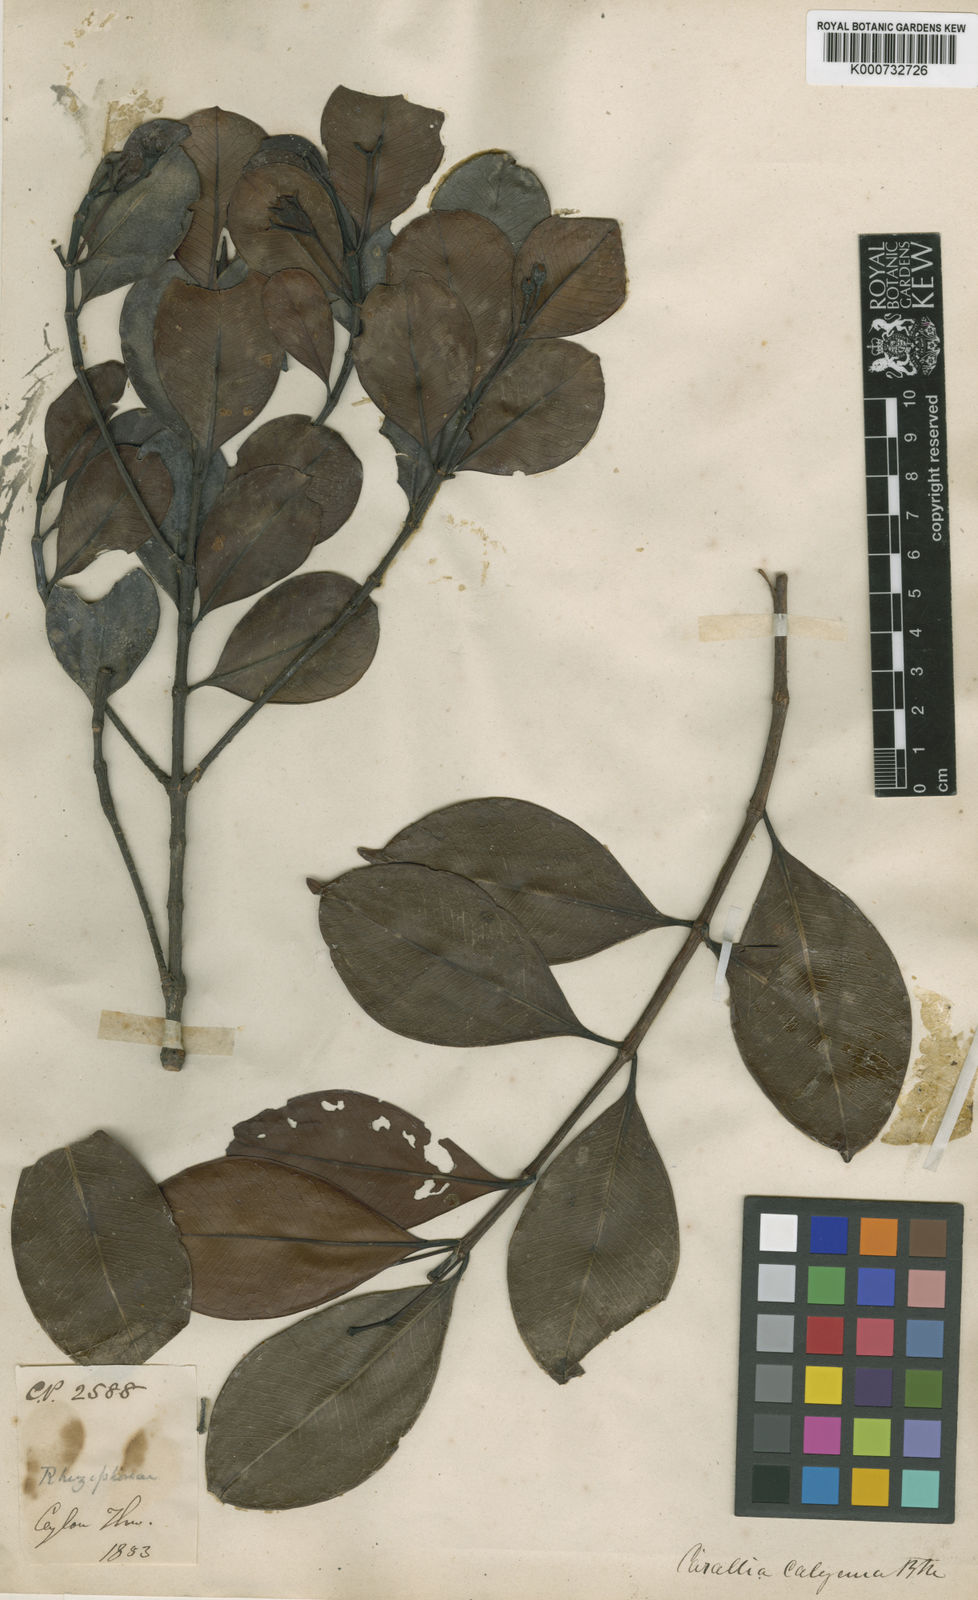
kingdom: Plantae
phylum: Tracheophyta
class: Magnoliopsida
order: Malpighiales
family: Rhizophoraceae
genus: Carallia
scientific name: Carallia brachiata
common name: Carallawood
